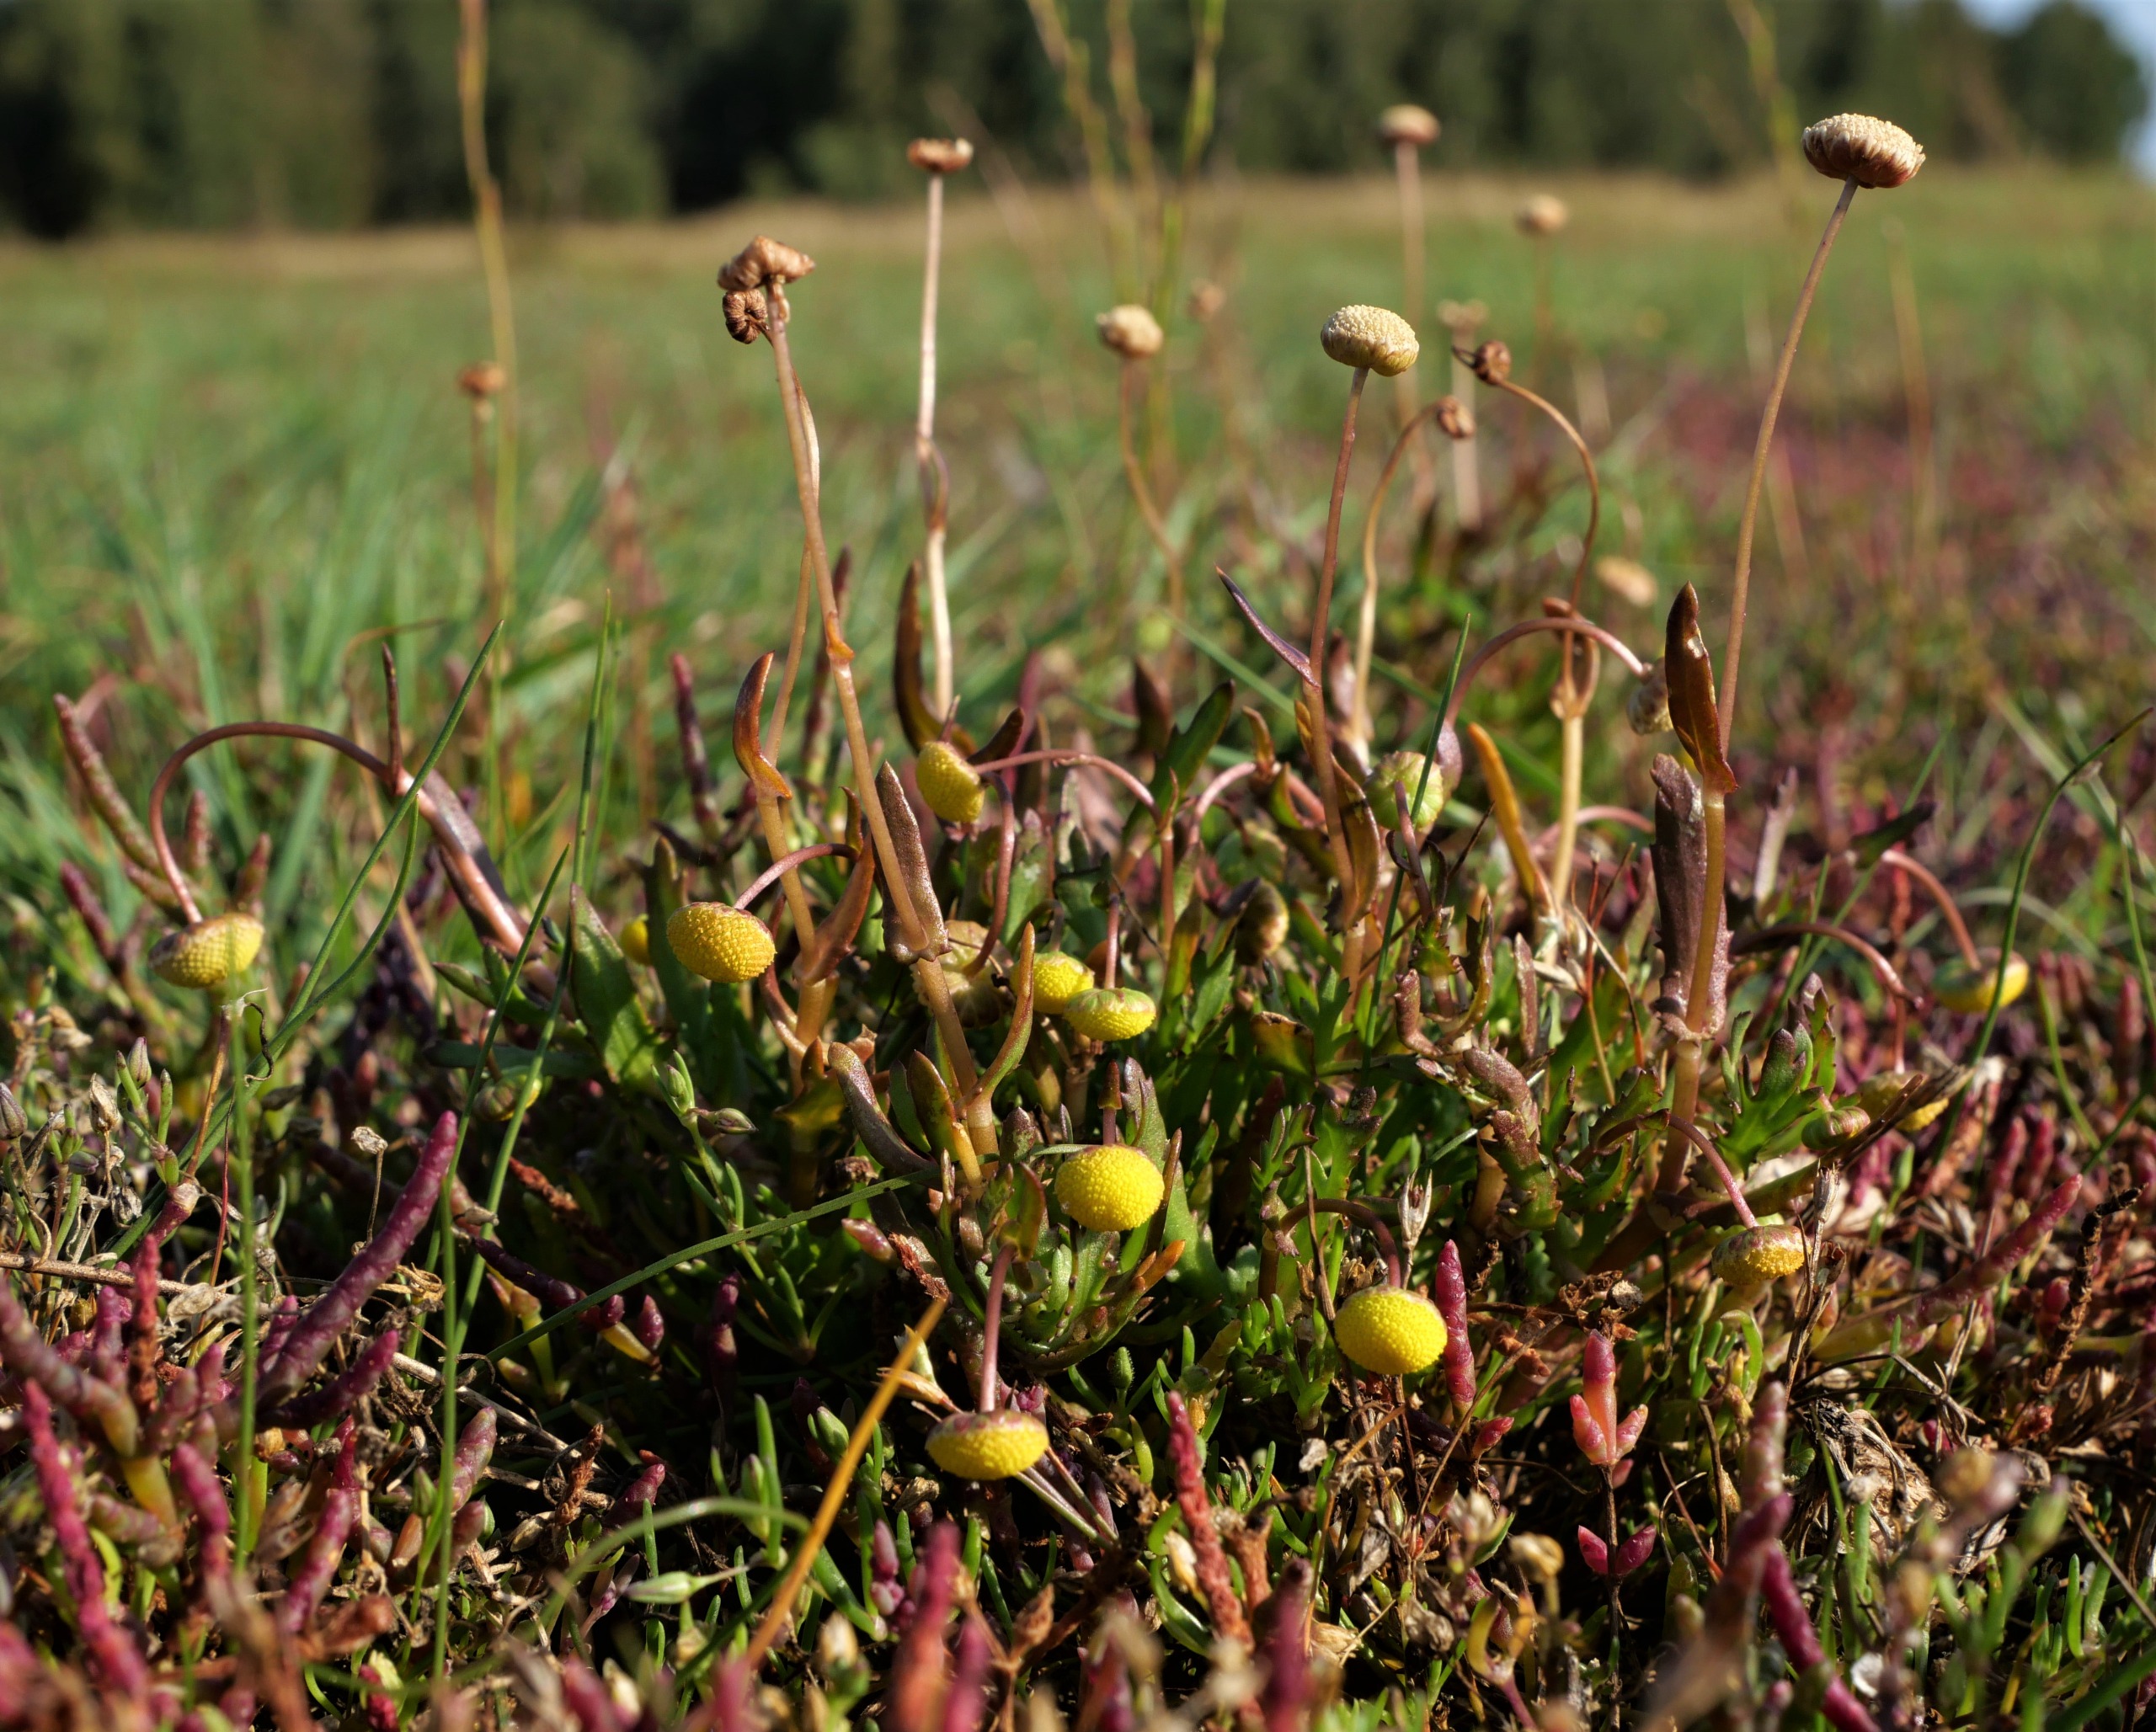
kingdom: Plantae
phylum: Tracheophyta
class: Magnoliopsida
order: Asterales
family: Asteraceae
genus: Cotula
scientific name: Cotula coronopifolia
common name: Firkløft
